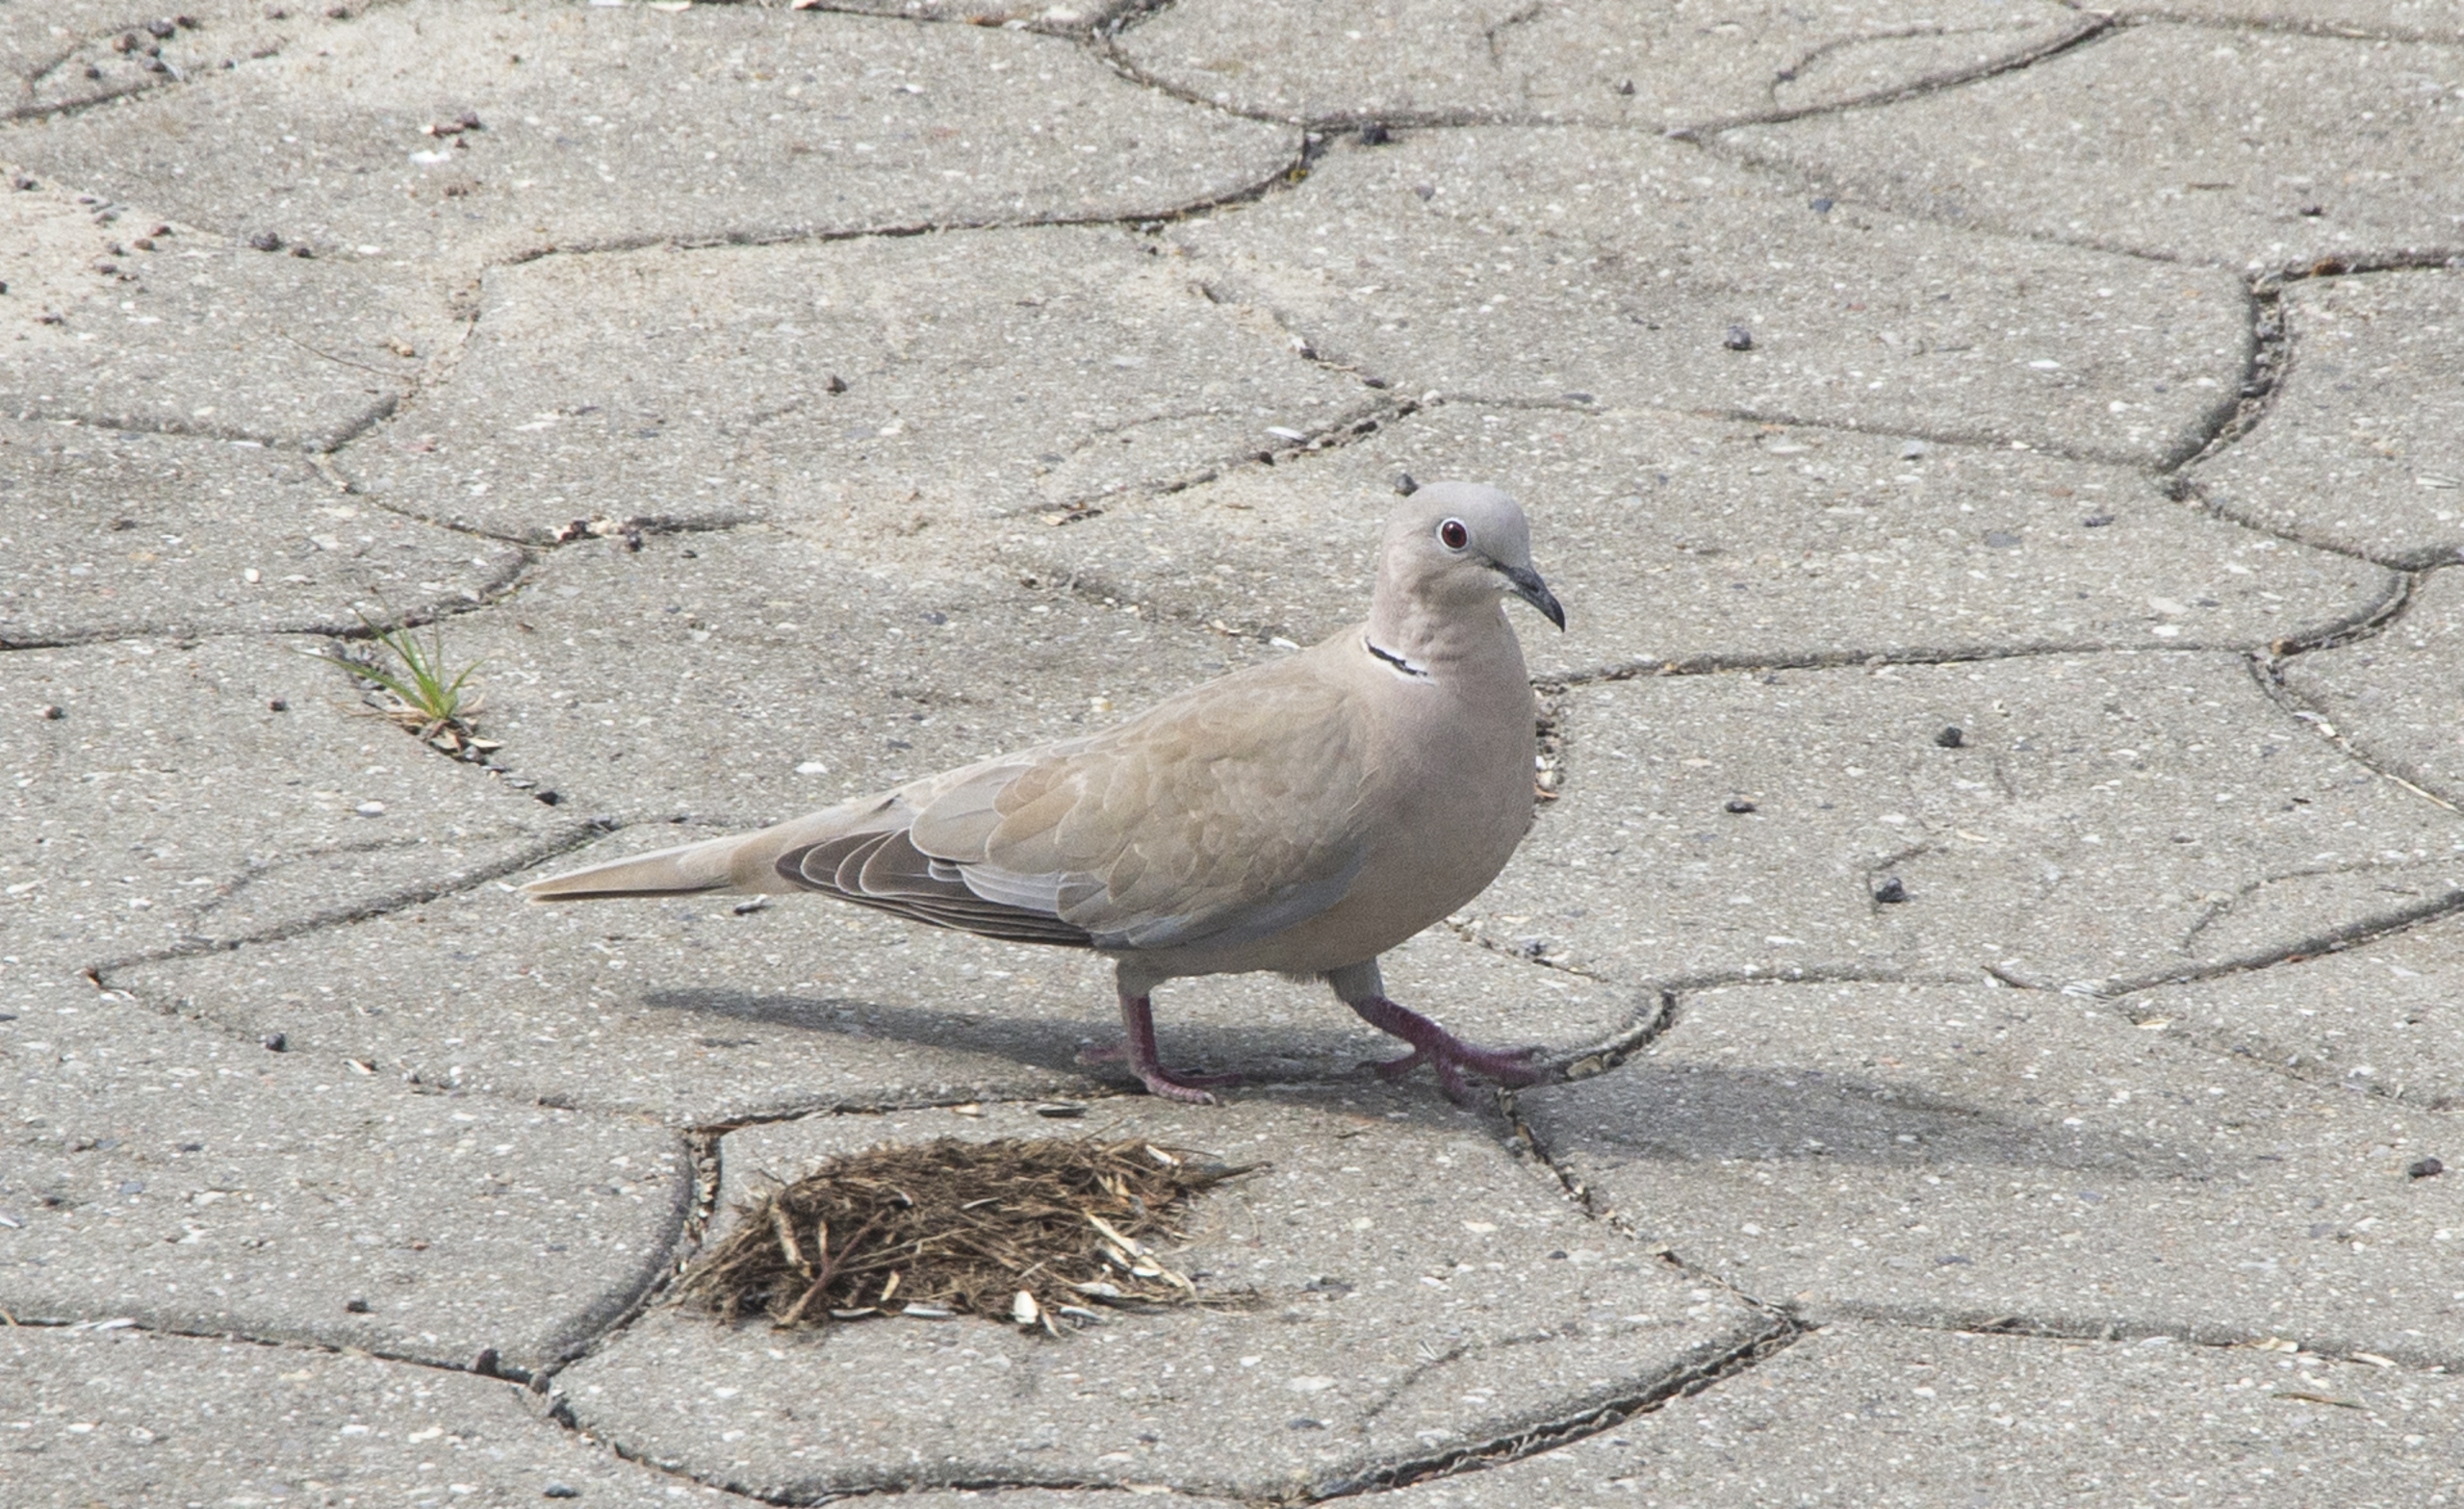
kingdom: Animalia
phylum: Chordata
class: Aves
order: Columbiformes
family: Columbidae
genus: Streptopelia
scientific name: Streptopelia decaocto
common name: Tyrkerdue
